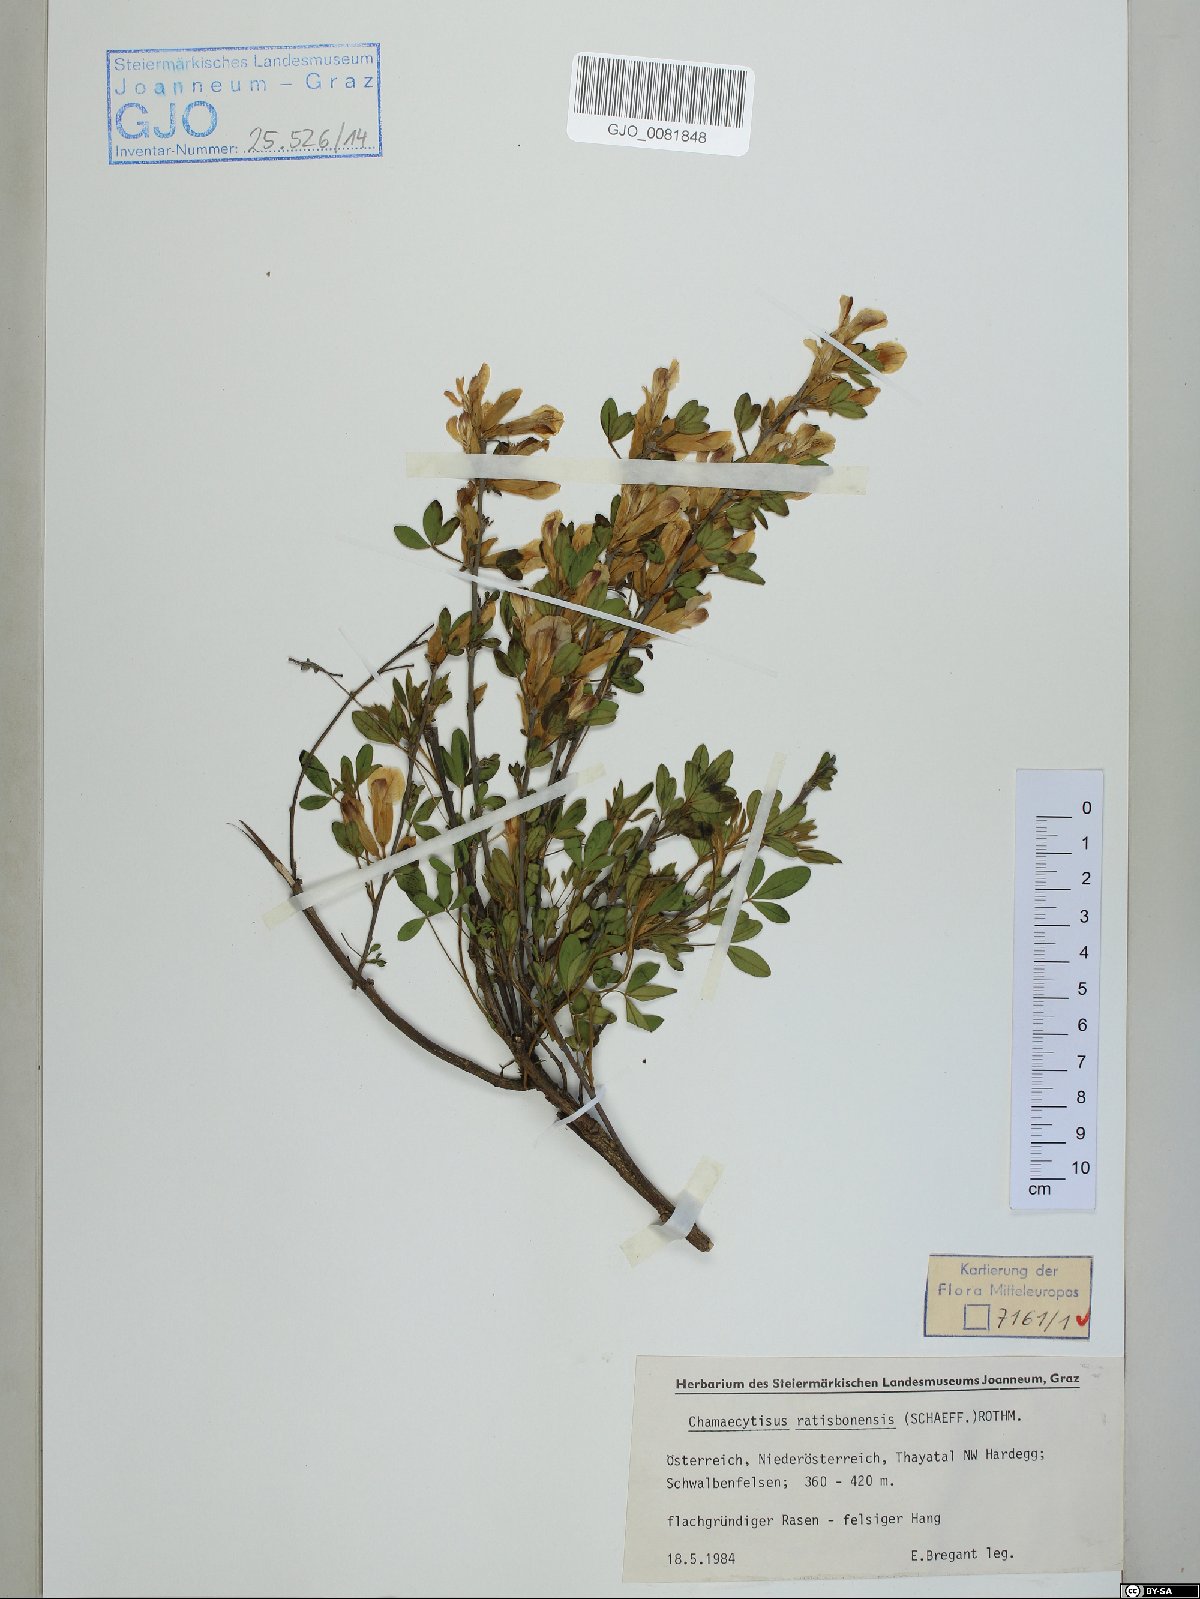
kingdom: Plantae
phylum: Tracheophyta
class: Magnoliopsida
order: Fabales
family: Fabaceae
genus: Chamaecytisus
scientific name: Chamaecytisus ratisbonensis
